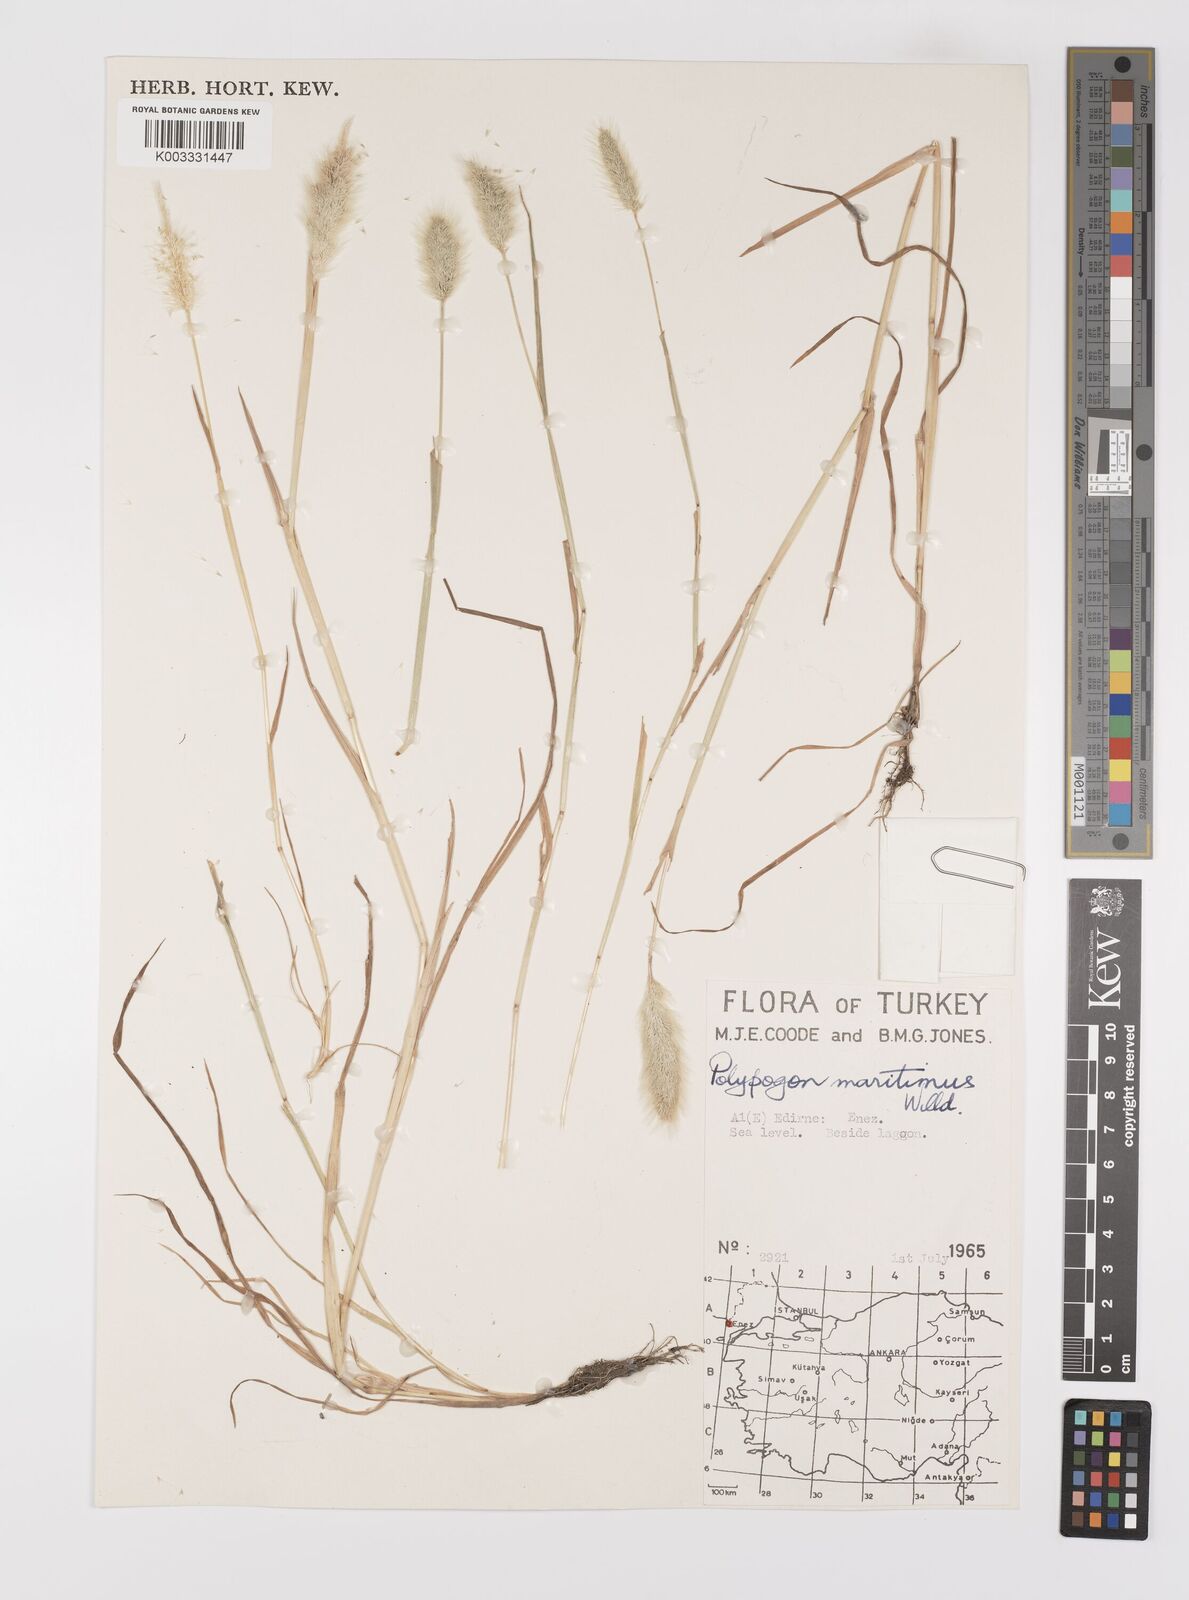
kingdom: Plantae
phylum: Tracheophyta
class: Liliopsida
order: Poales
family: Poaceae
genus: Polypogon
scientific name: Polypogon maritimus
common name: Mediterranean rabbitsfoot grass
